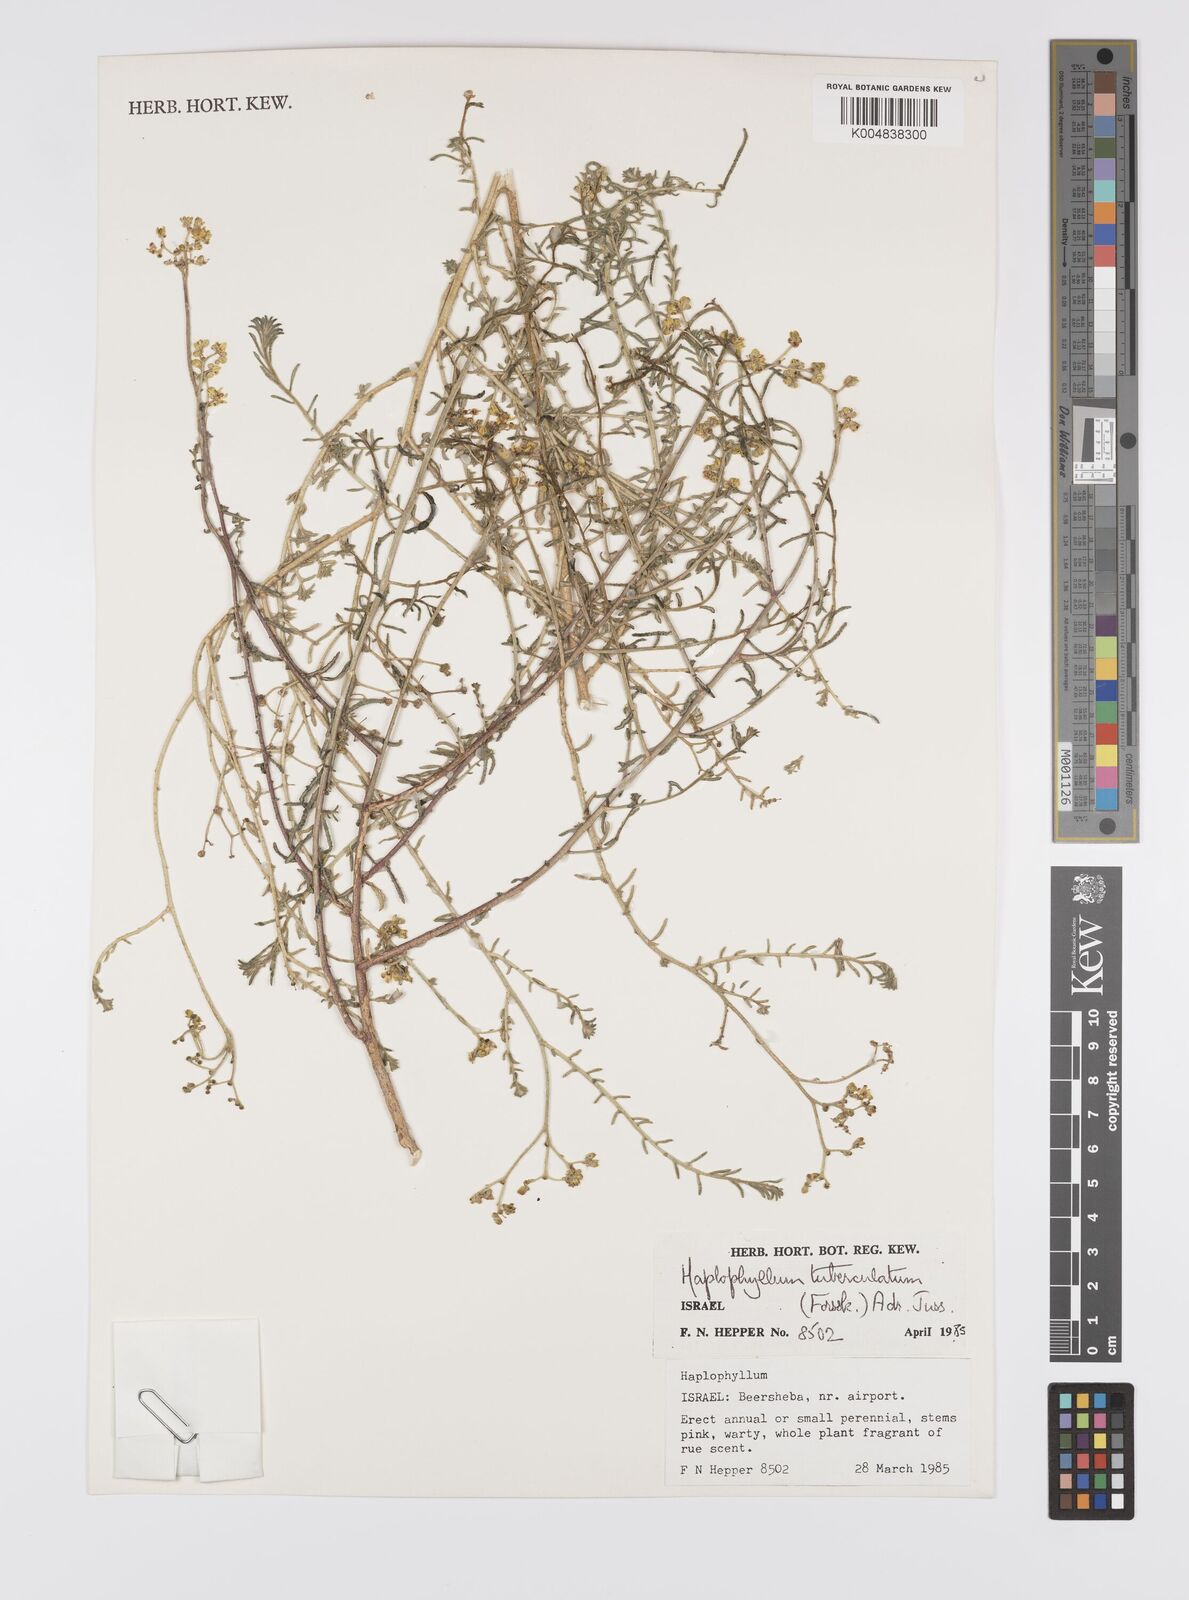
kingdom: Plantae
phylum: Tracheophyta
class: Magnoliopsida
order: Sapindales
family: Rutaceae
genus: Haplophyllum
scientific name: Haplophyllum tuberculatum
